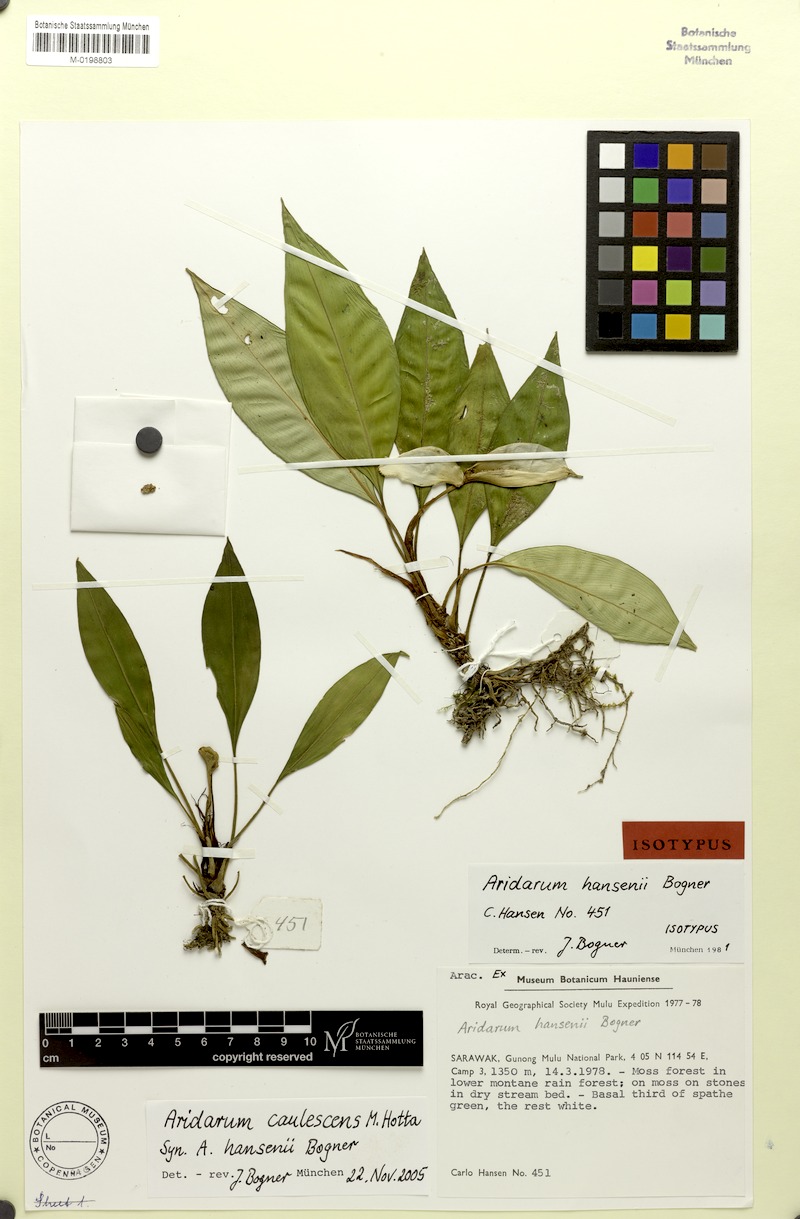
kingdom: Plantae
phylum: Tracheophyta
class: Liliopsida
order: Alismatales
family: Araceae
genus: Burttianthus
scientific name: Burttianthus caulescens
